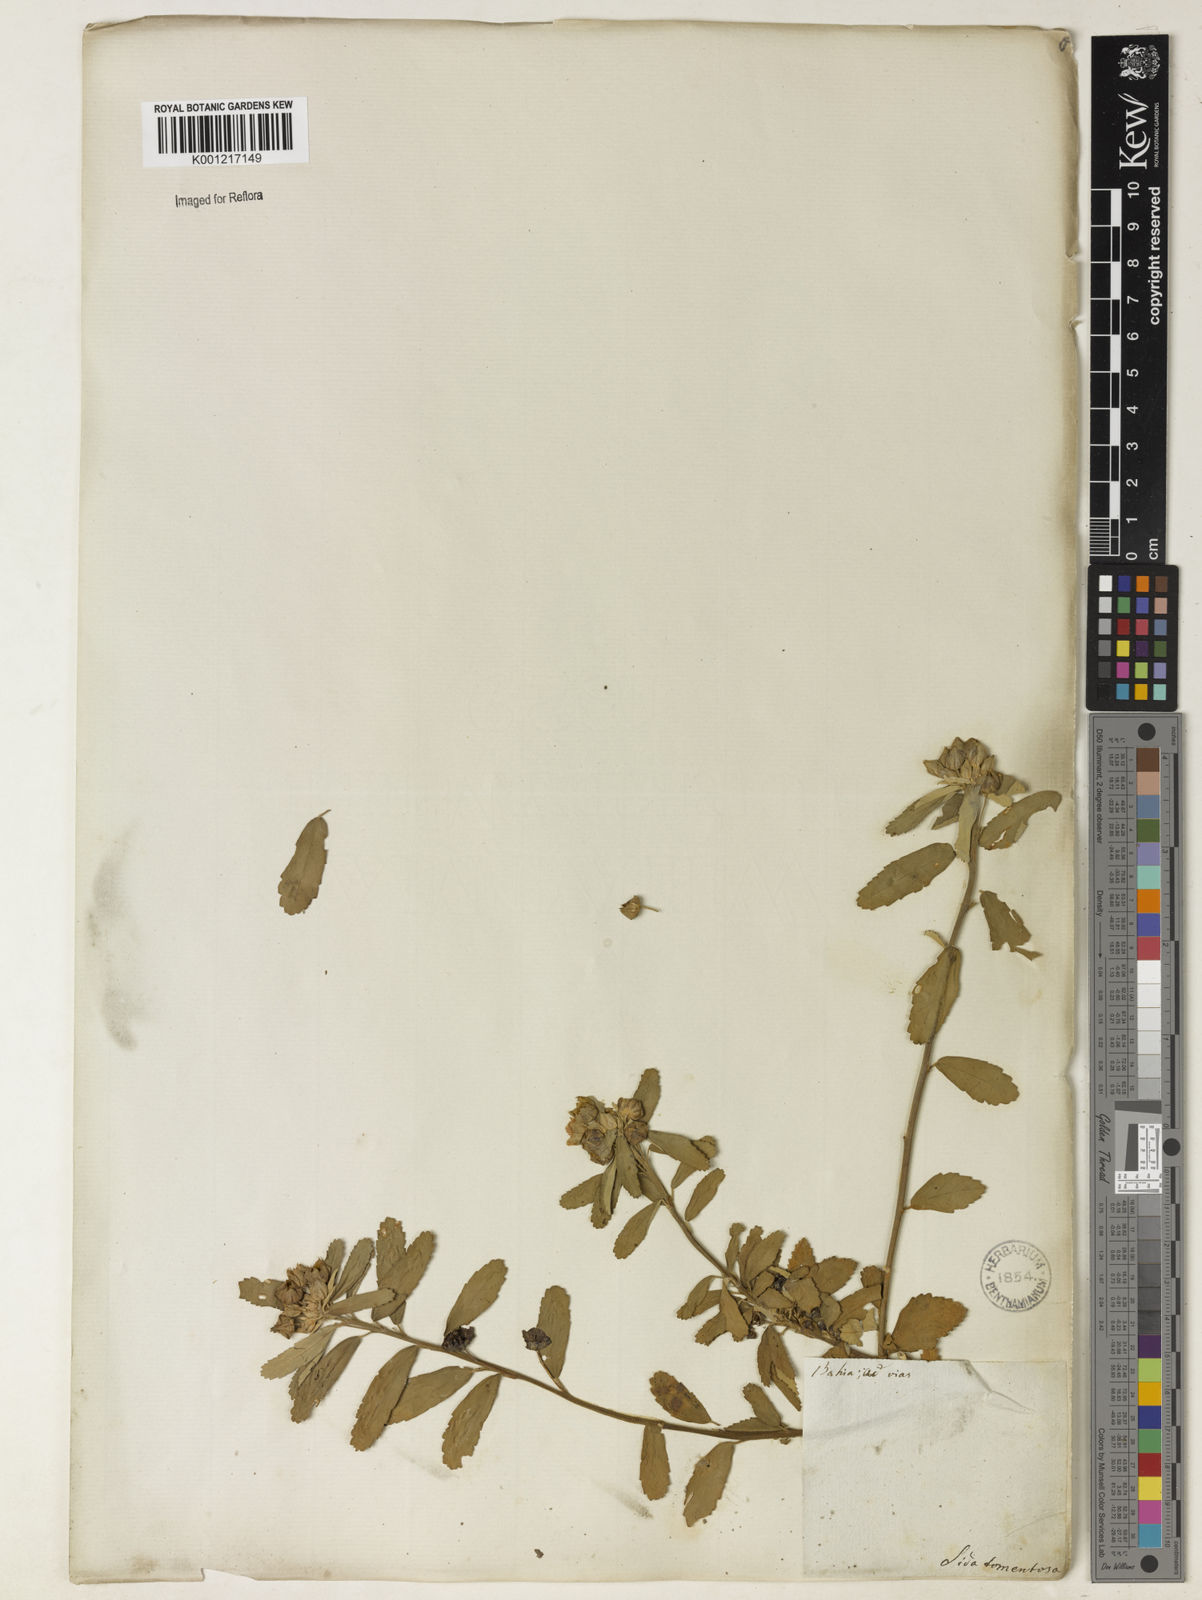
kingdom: Plantae
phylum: Tracheophyta
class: Magnoliopsida
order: Malvales
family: Malvaceae
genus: Sida
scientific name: Sida
